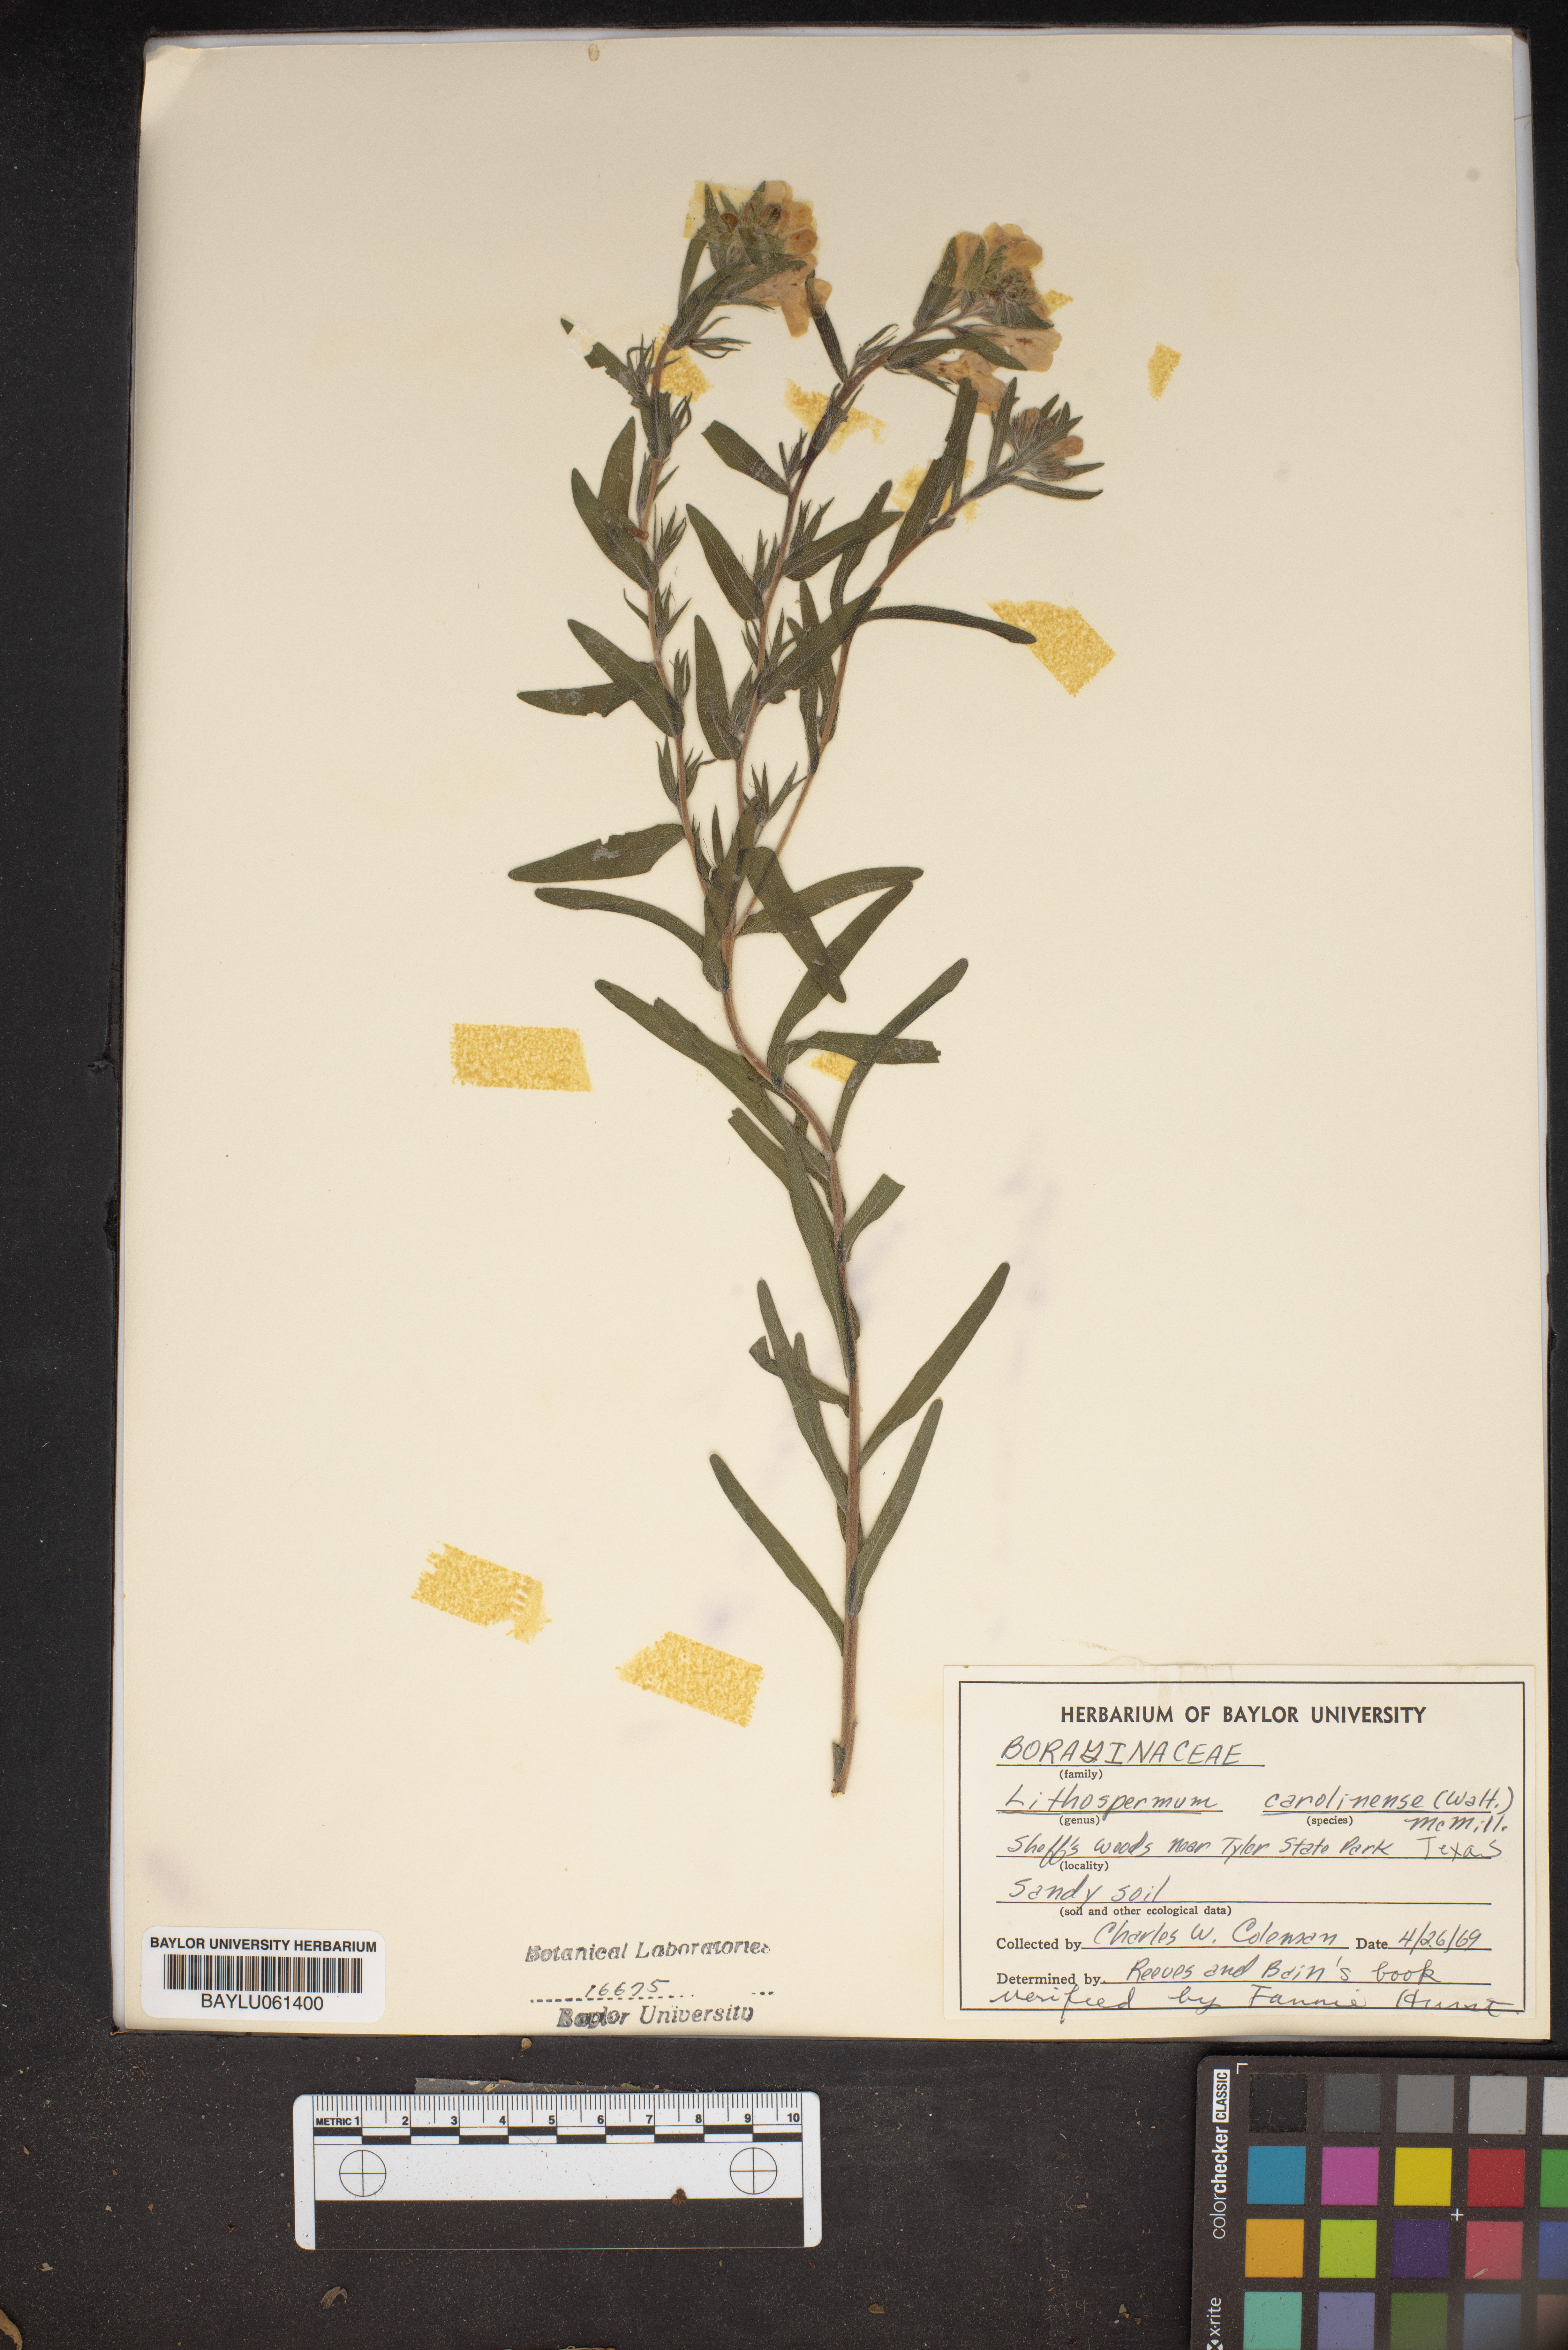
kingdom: Plantae
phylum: Tracheophyta
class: Magnoliopsida
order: Boraginales
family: Boraginaceae
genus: Lithospermum
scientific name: Lithospermum caroliniense
